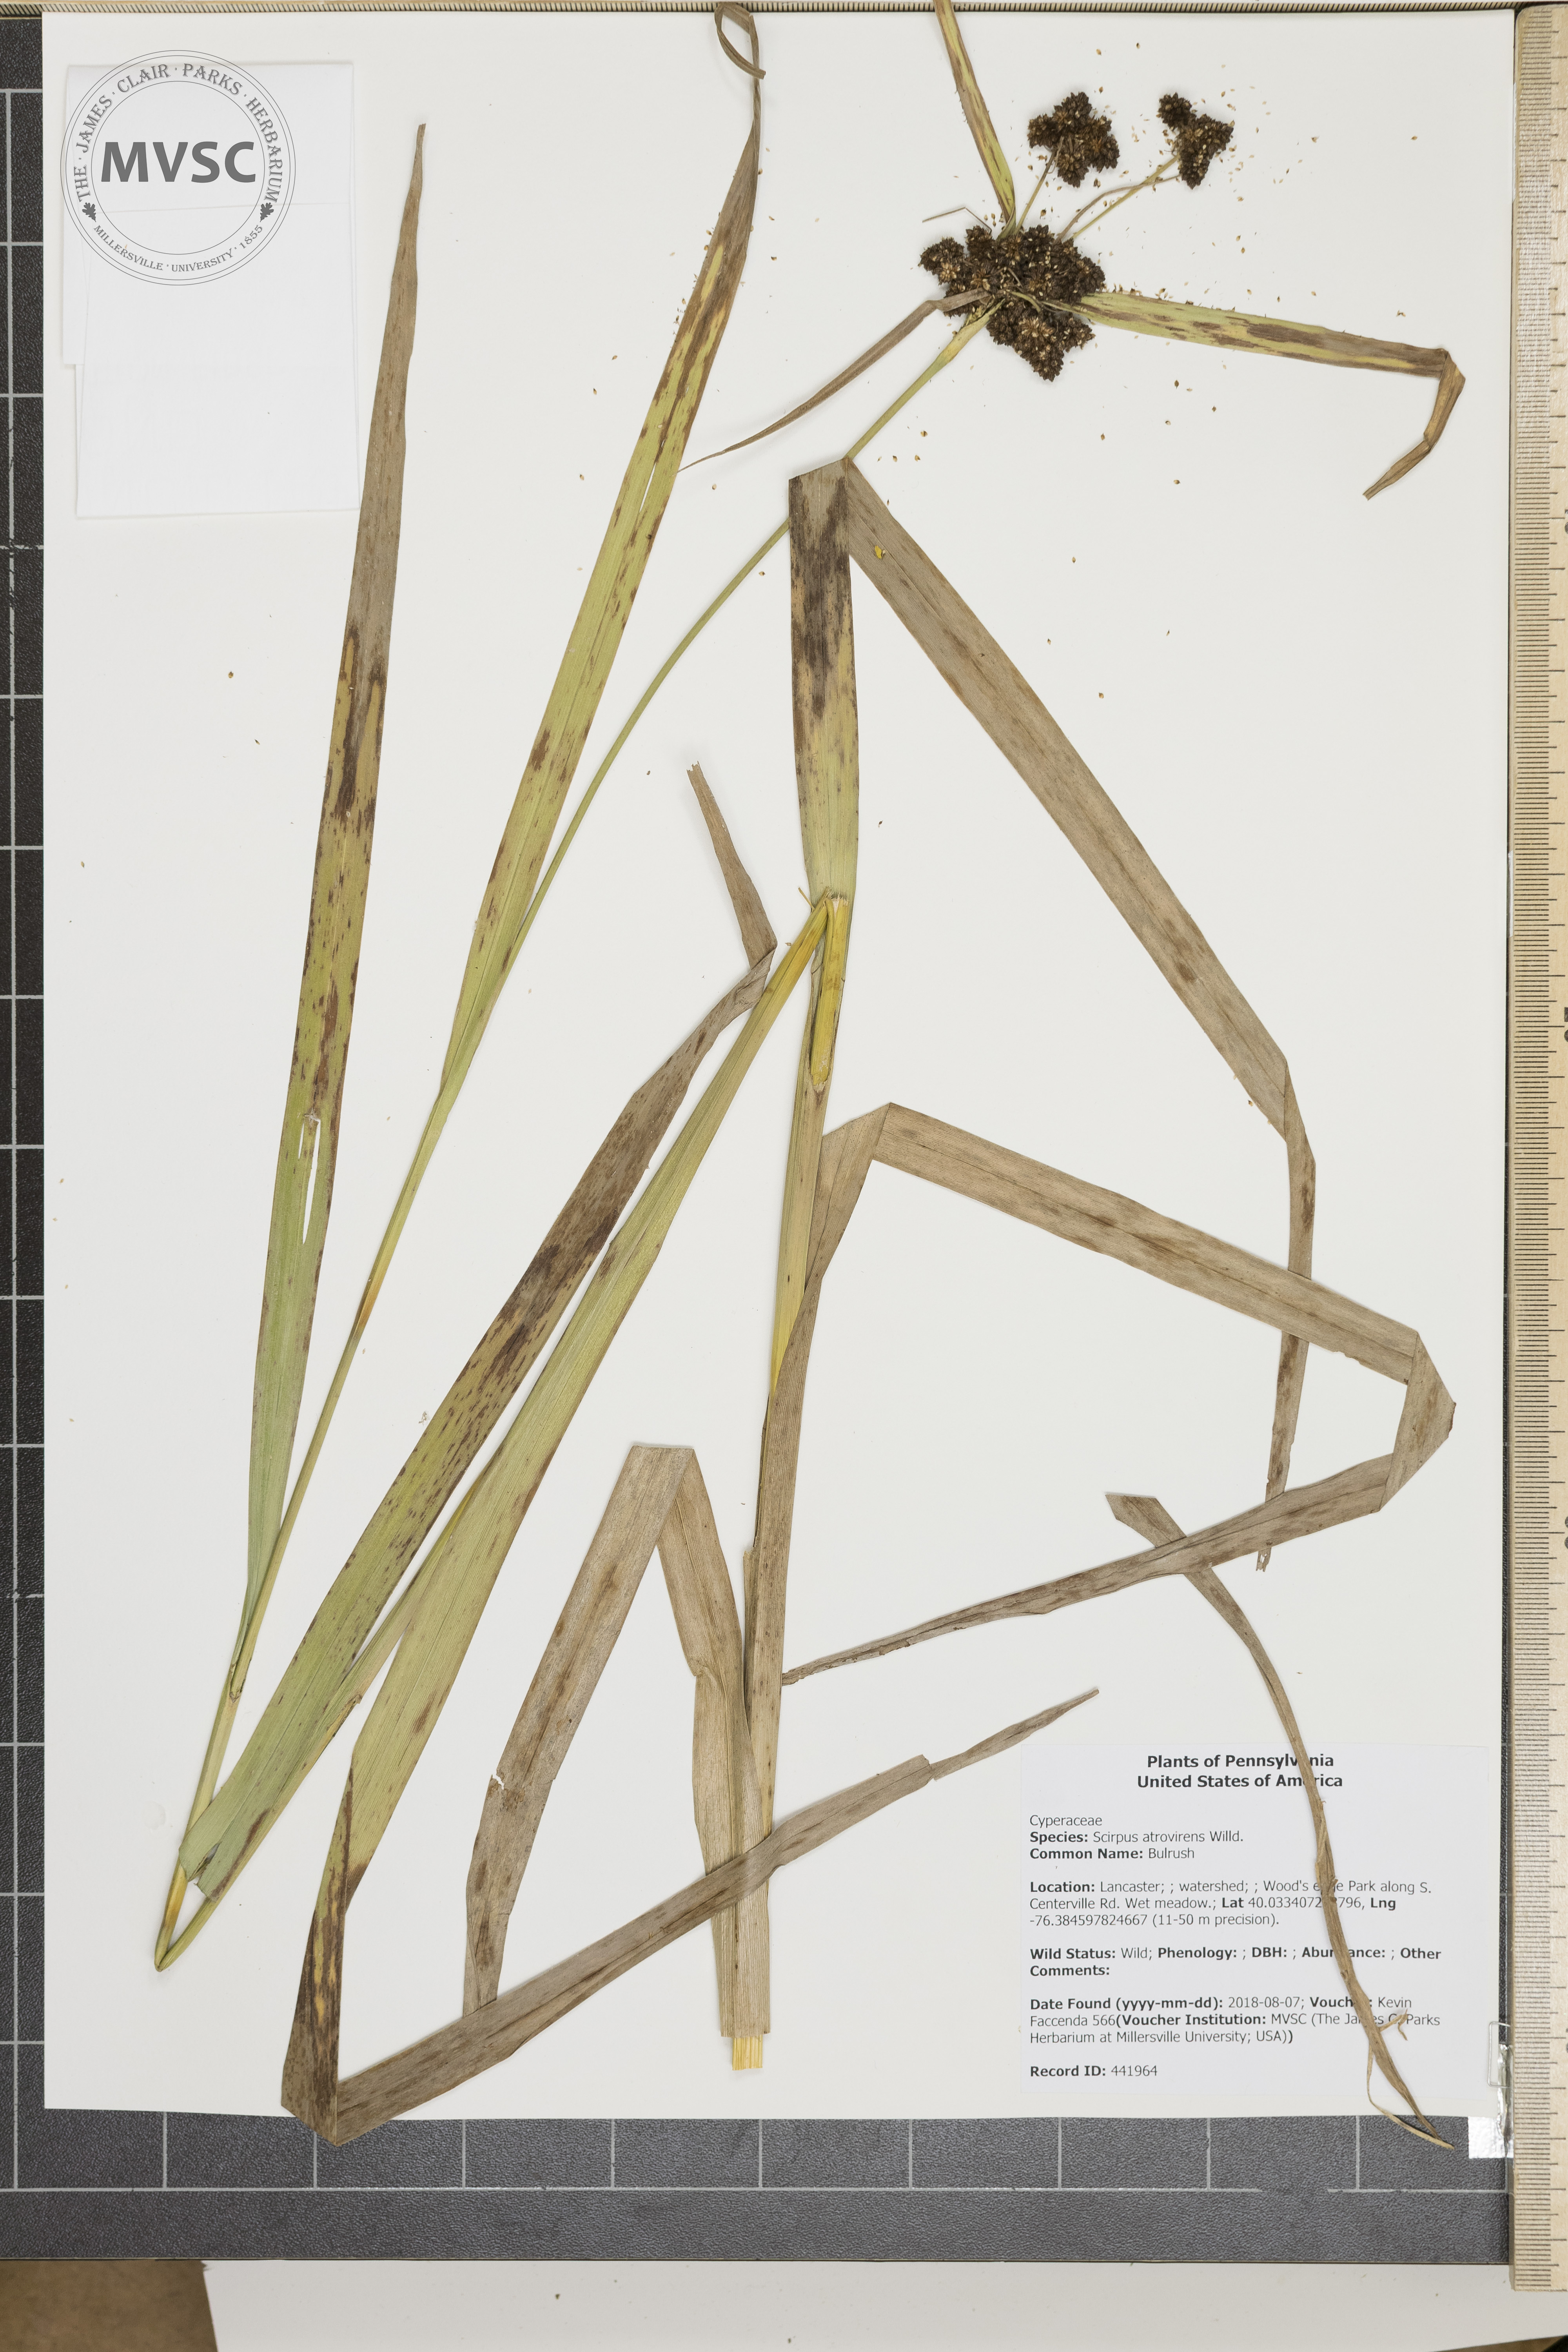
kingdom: Plantae
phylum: Tracheophyta
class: Liliopsida
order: Poales
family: Cyperaceae
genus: Scirpus
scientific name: Scirpus atrovirens
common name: Bulrush
